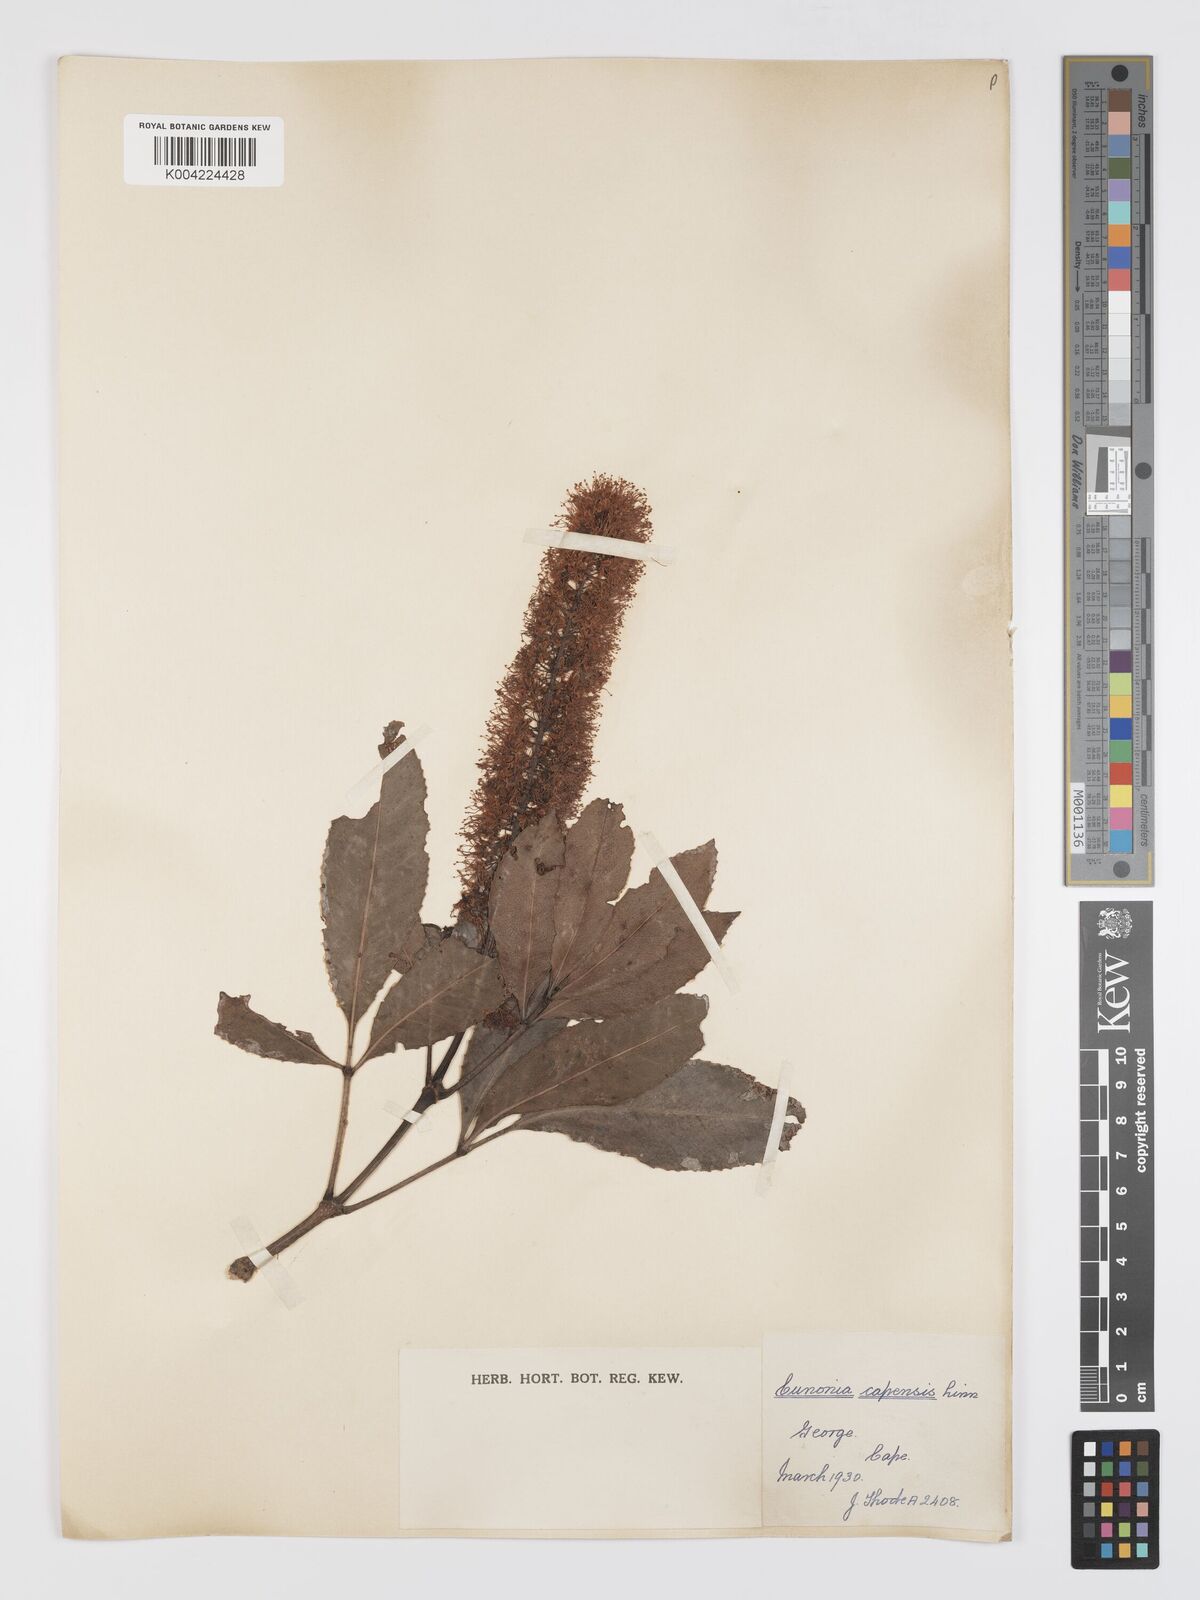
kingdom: Plantae
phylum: Tracheophyta
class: Magnoliopsida
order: Oxalidales
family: Cunoniaceae
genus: Cunonia
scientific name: Cunonia capensis
